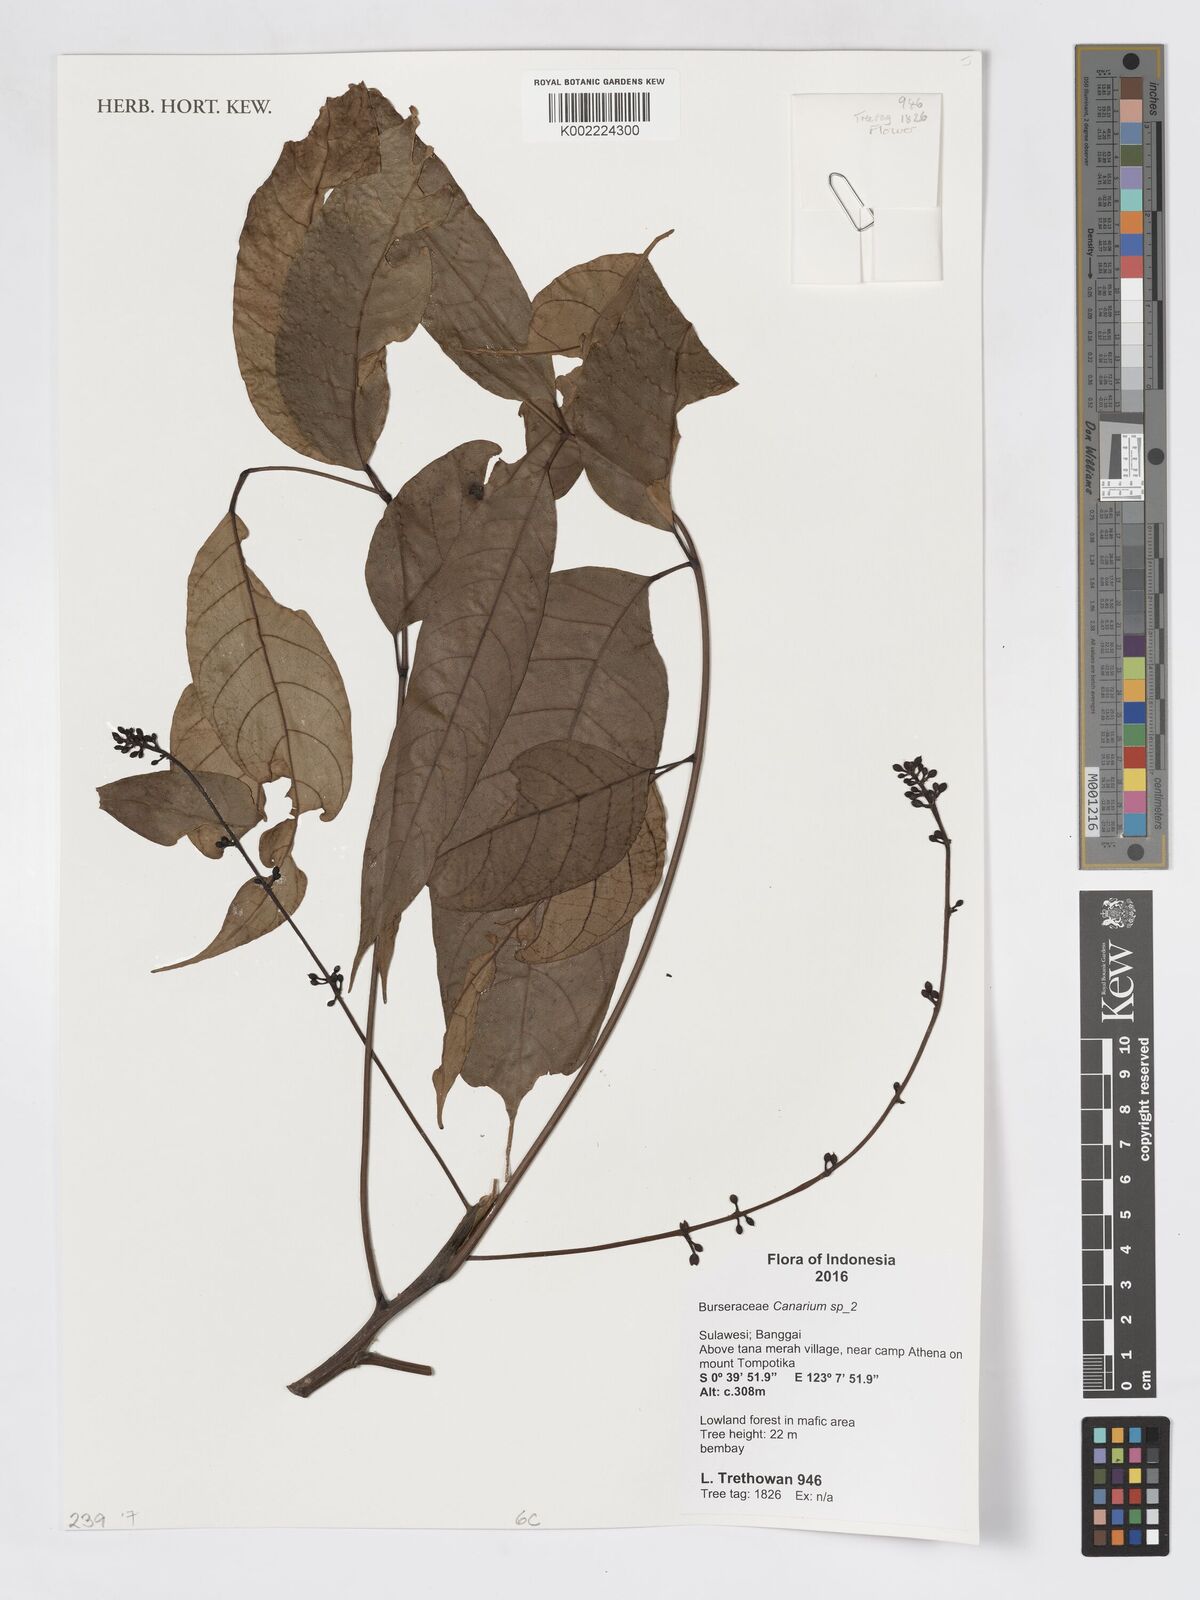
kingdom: Plantae
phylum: Tracheophyta
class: Magnoliopsida
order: Sapindales
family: Burseraceae
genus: Canarium
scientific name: Canarium
